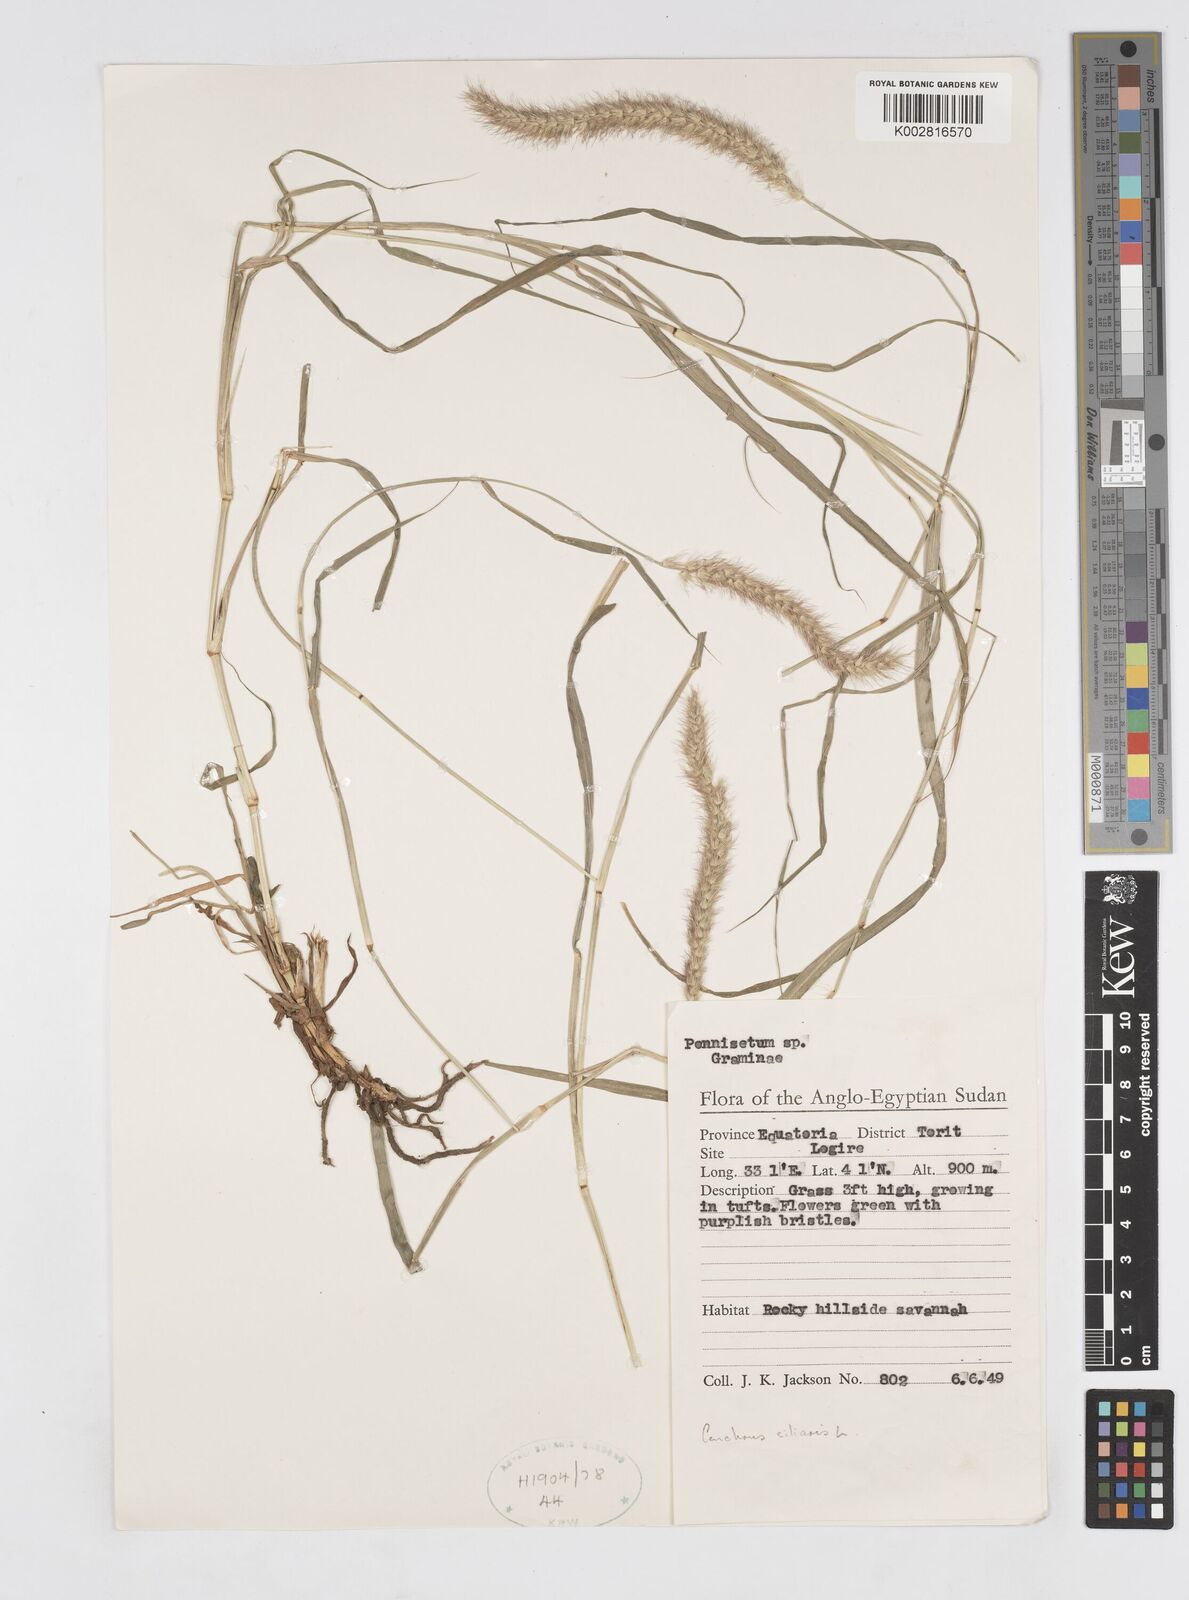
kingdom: Plantae
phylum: Tracheophyta
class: Liliopsida
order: Poales
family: Poaceae
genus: Cenchrus
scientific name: Cenchrus ciliaris
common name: Buffelgrass
